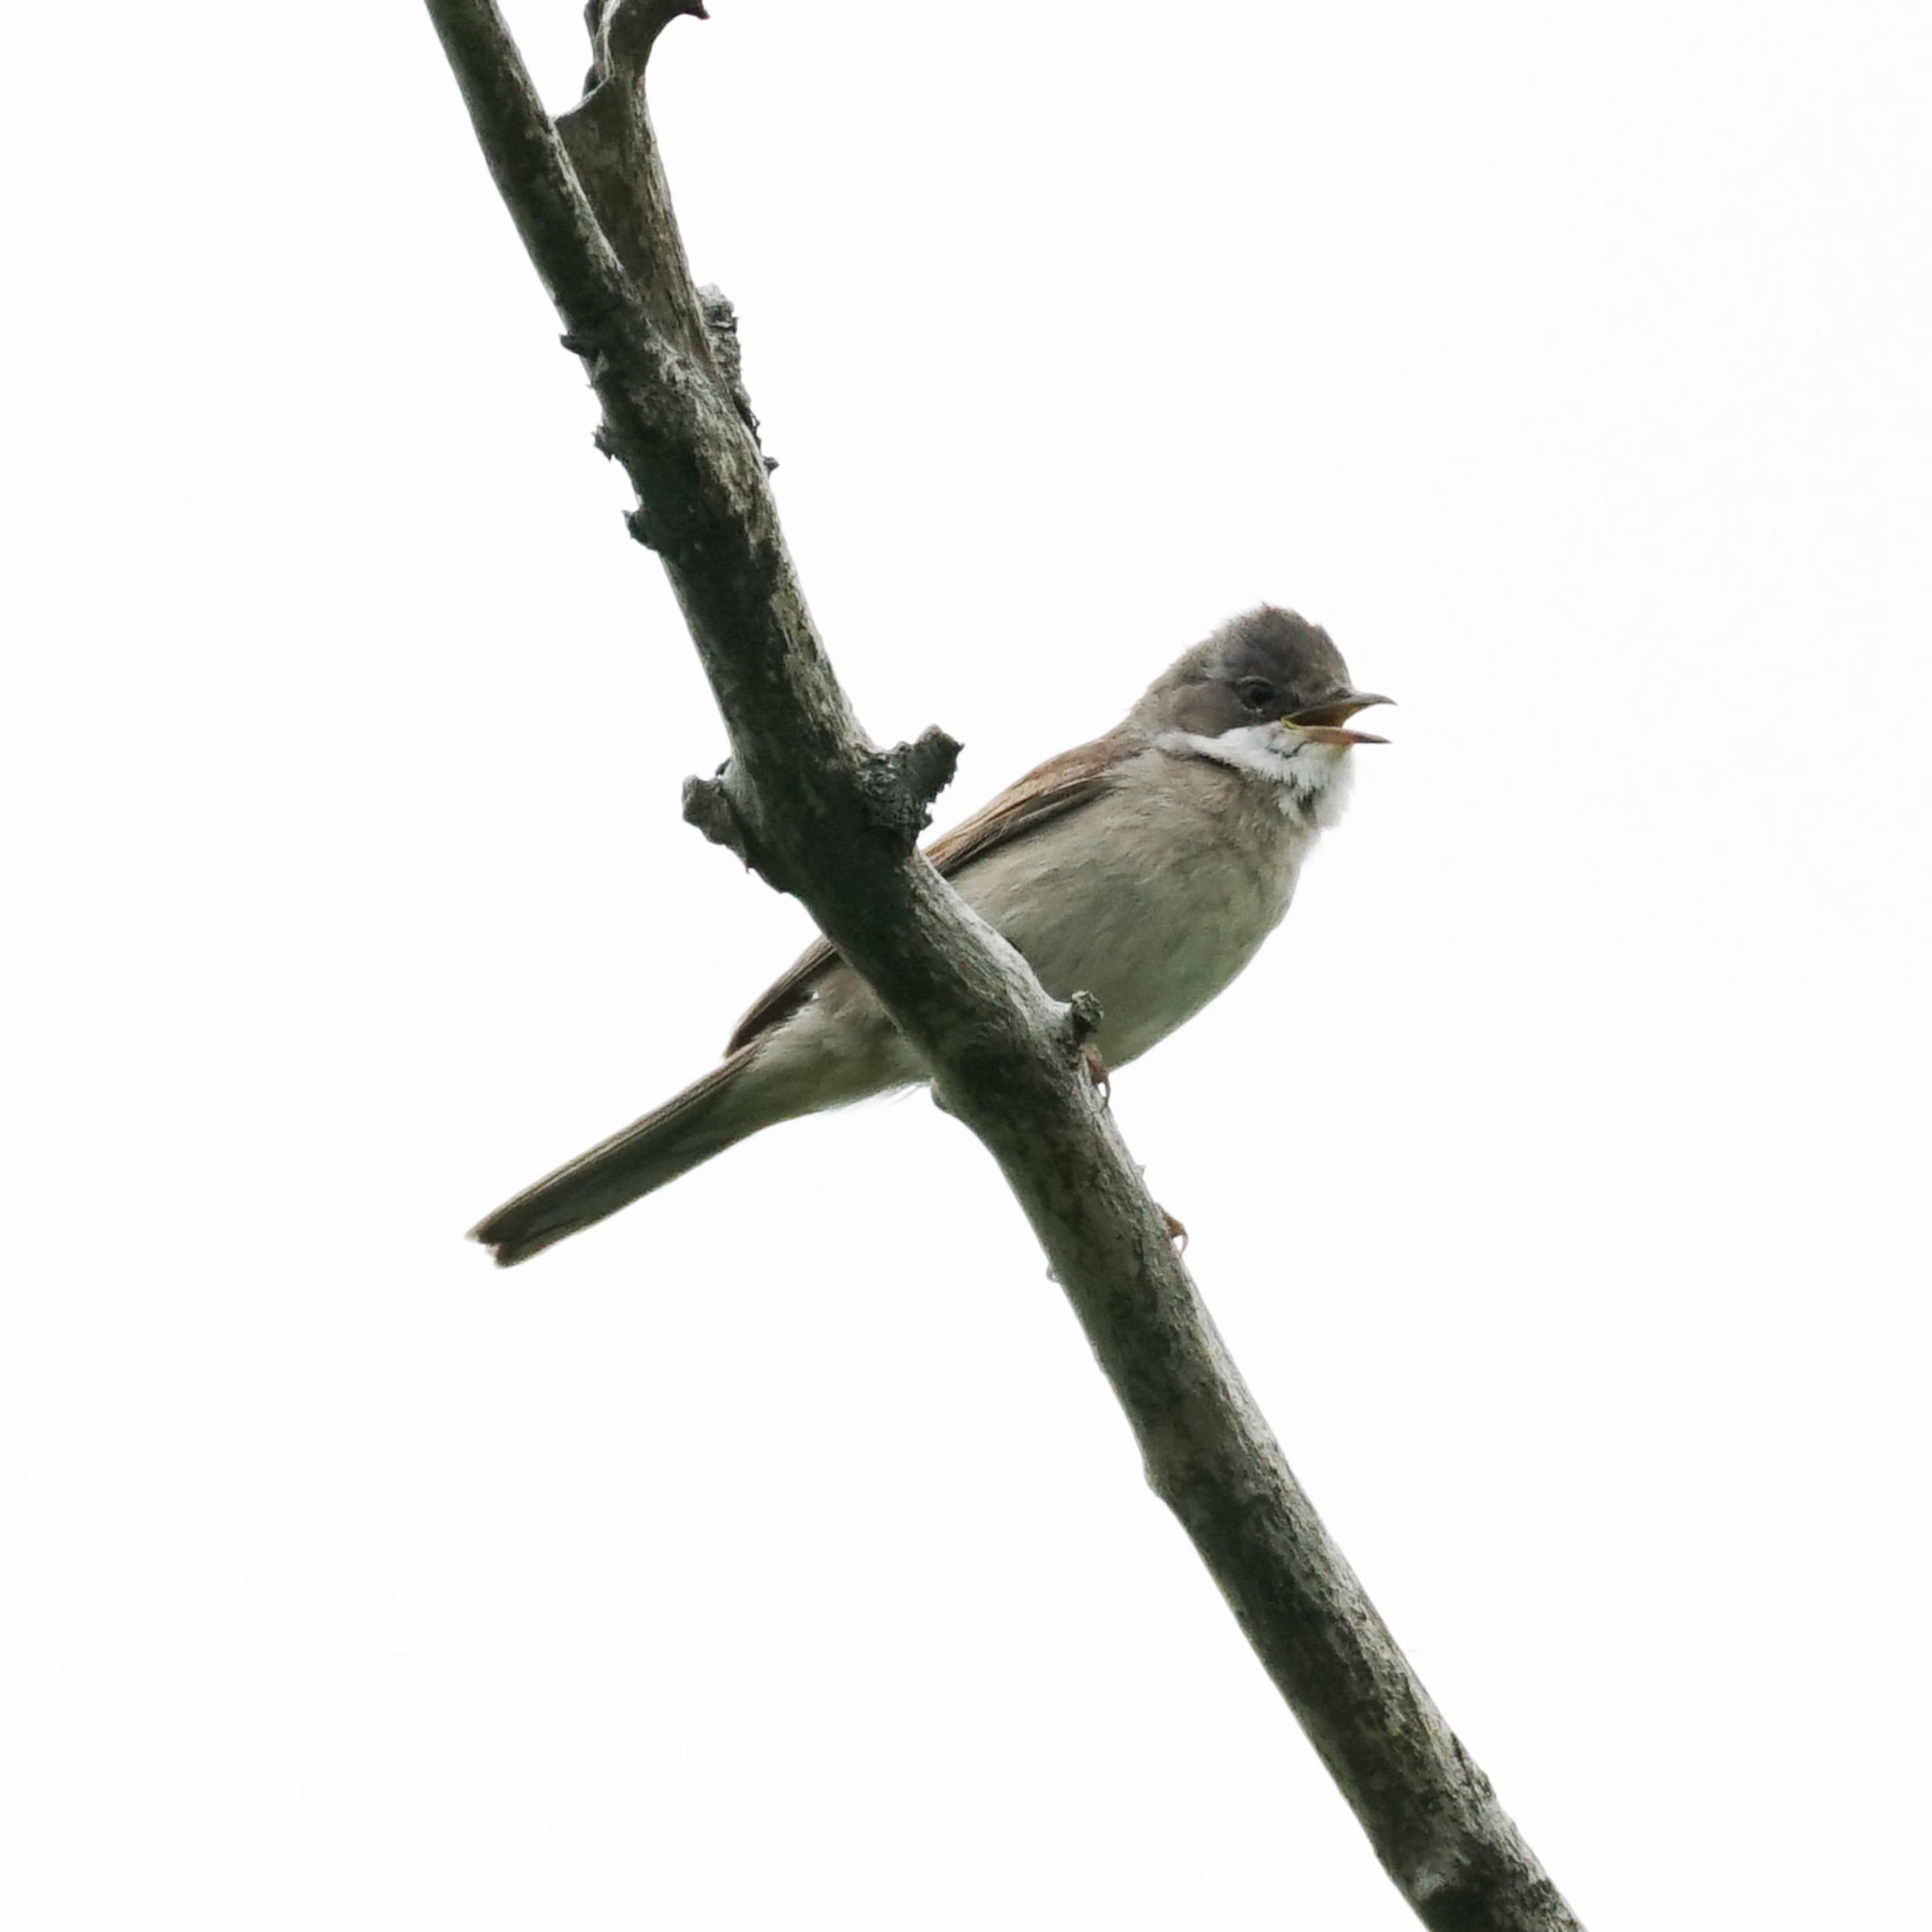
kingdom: Animalia
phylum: Chordata
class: Aves
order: Passeriformes
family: Sylviidae
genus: Sylvia
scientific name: Sylvia communis
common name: Tornsanger
